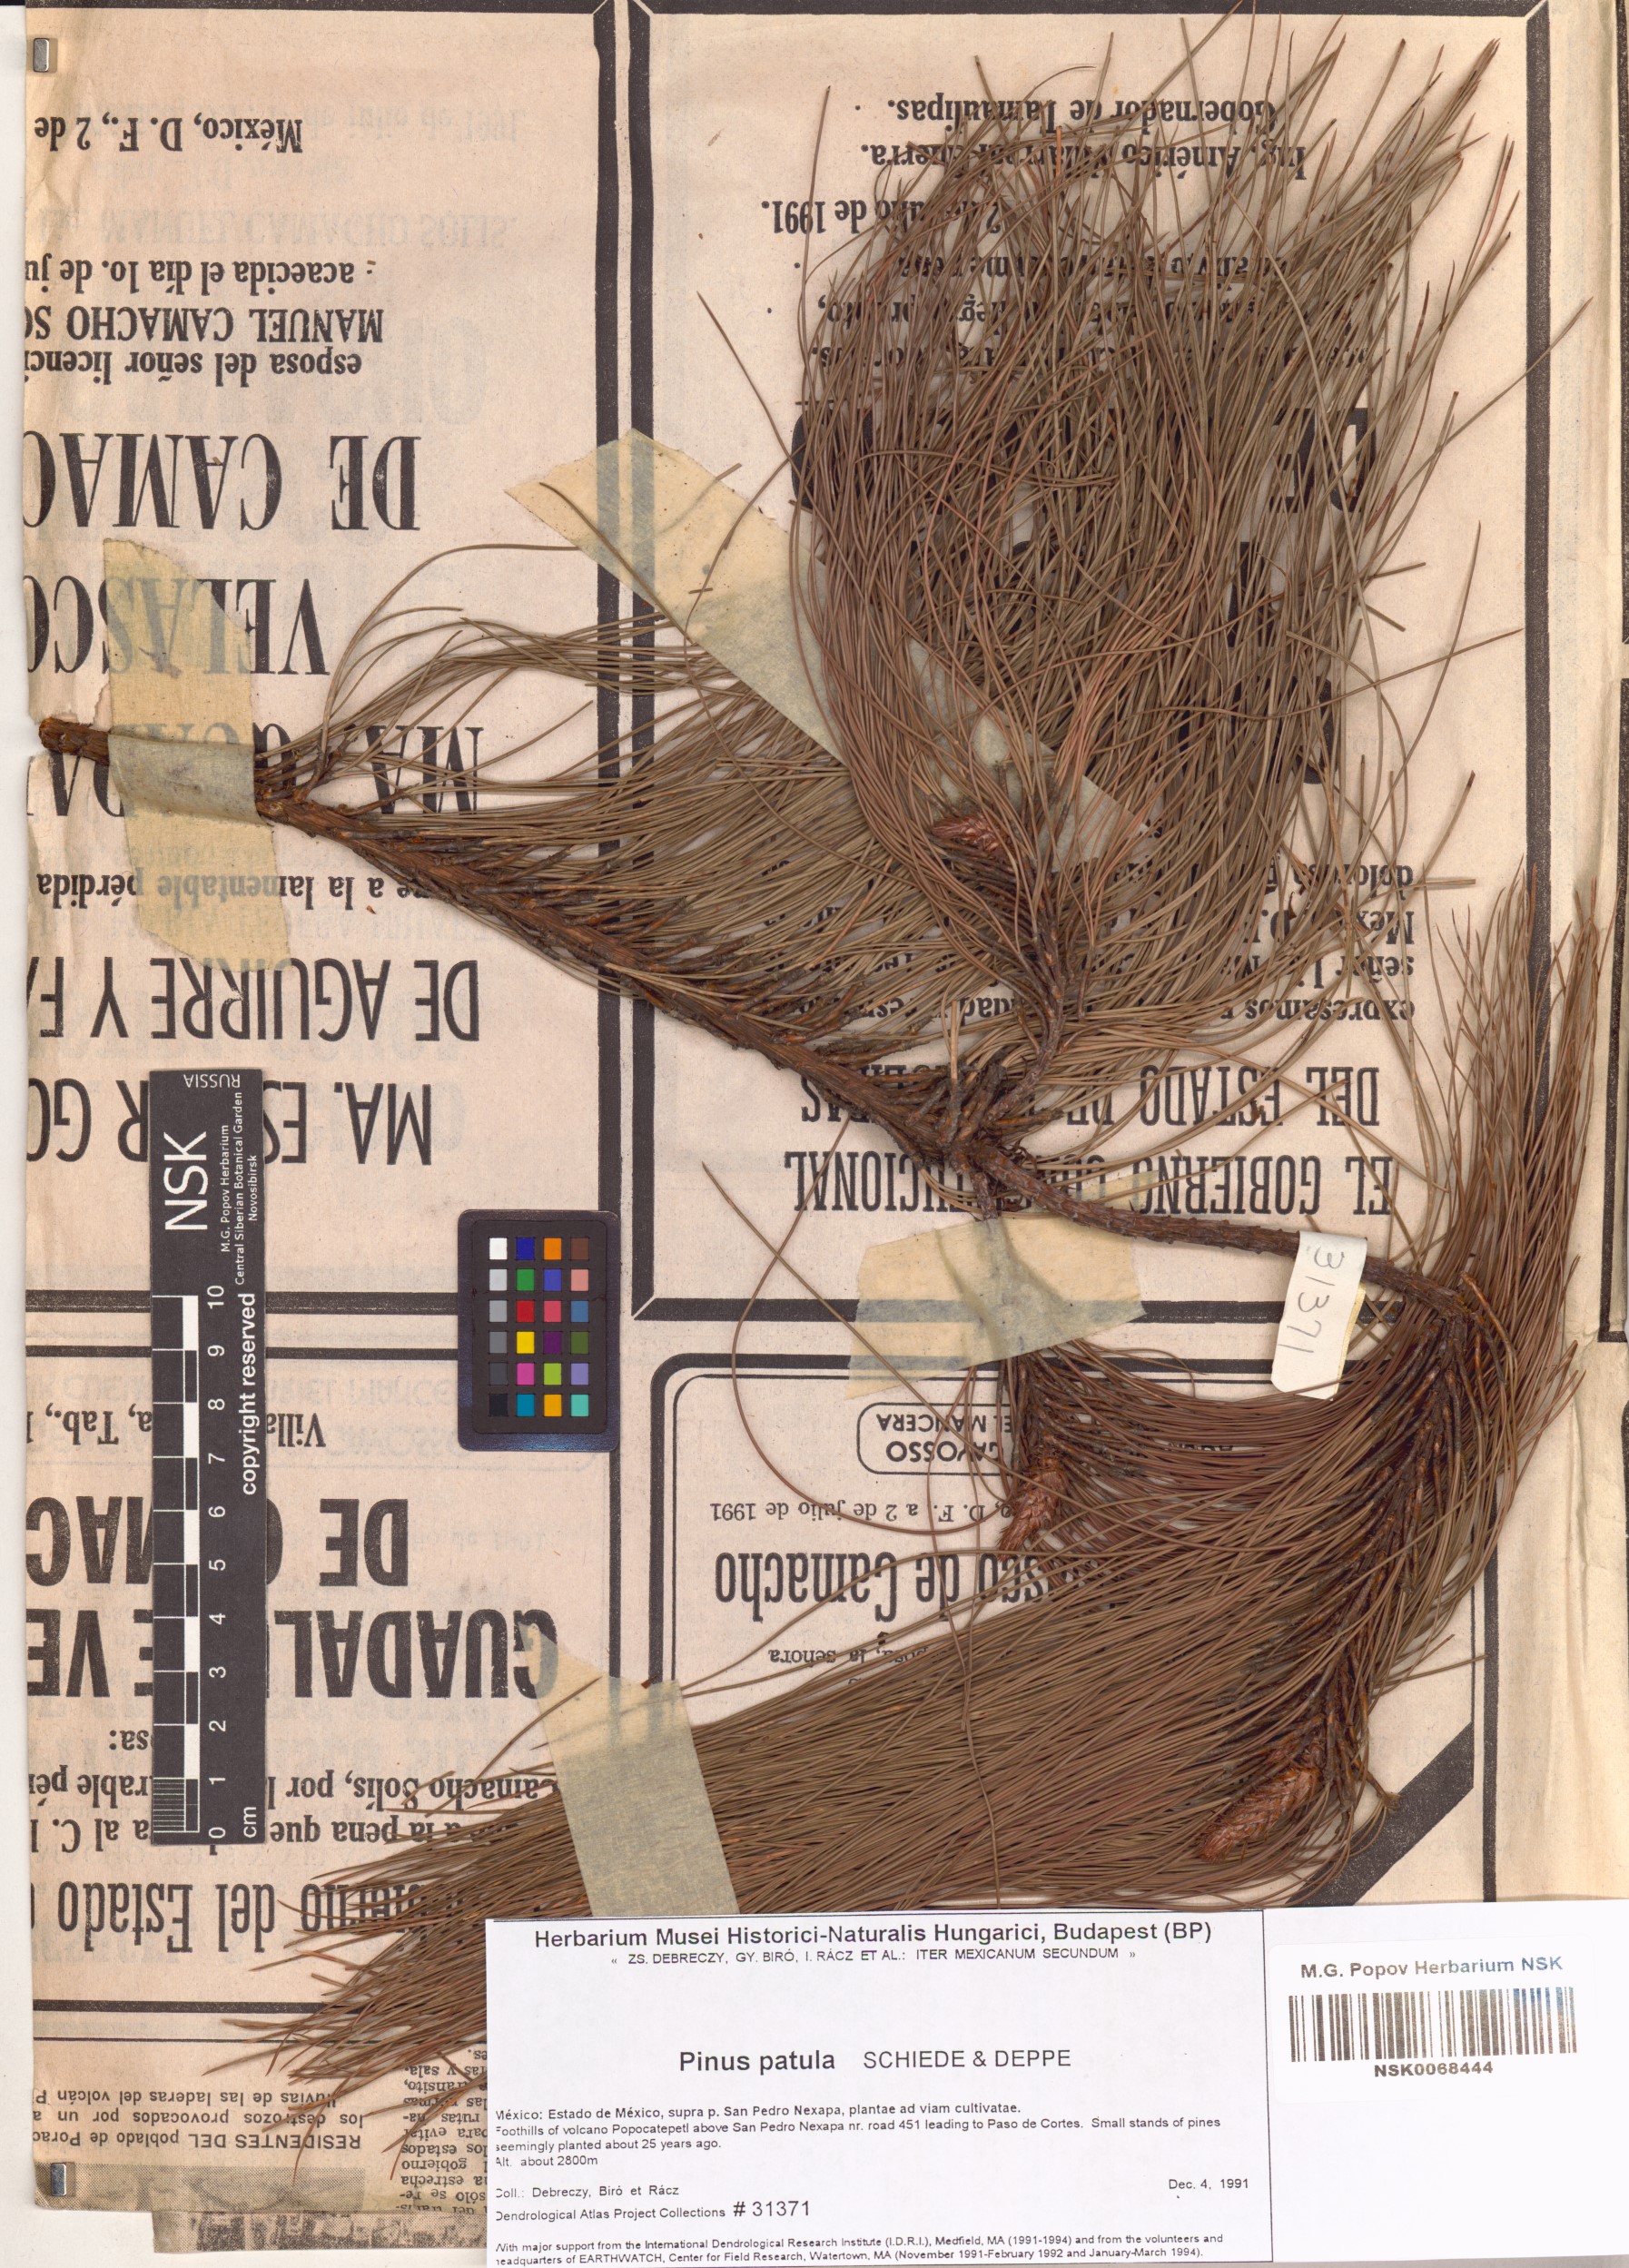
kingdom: Plantae
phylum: Tracheophyta
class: Pinopsida
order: Pinales
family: Pinaceae
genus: Pinus
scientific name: Pinus patula
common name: Mexican weeping pine
